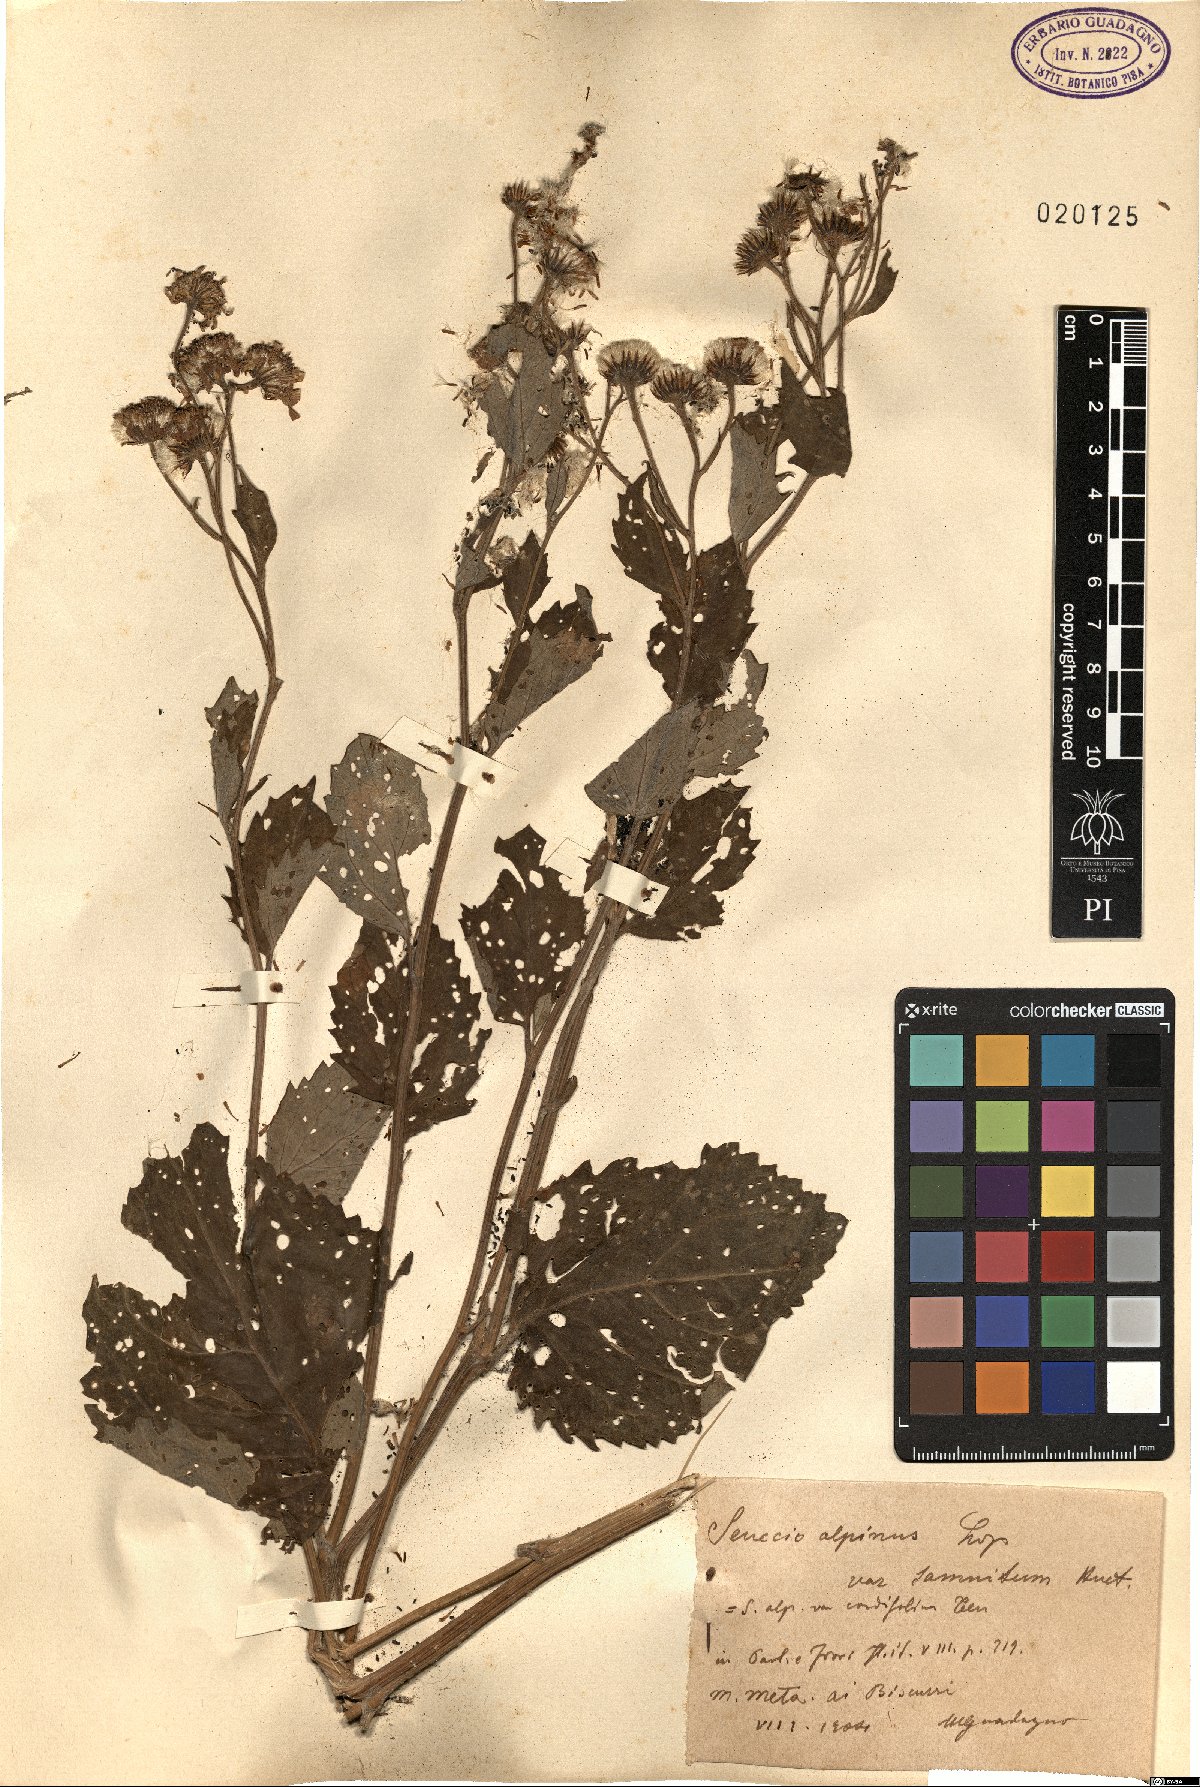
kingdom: Plantae
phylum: Tracheophyta
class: Magnoliopsida
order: Asterales
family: Asteraceae
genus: Jacobaea
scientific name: Jacobaea alpina
